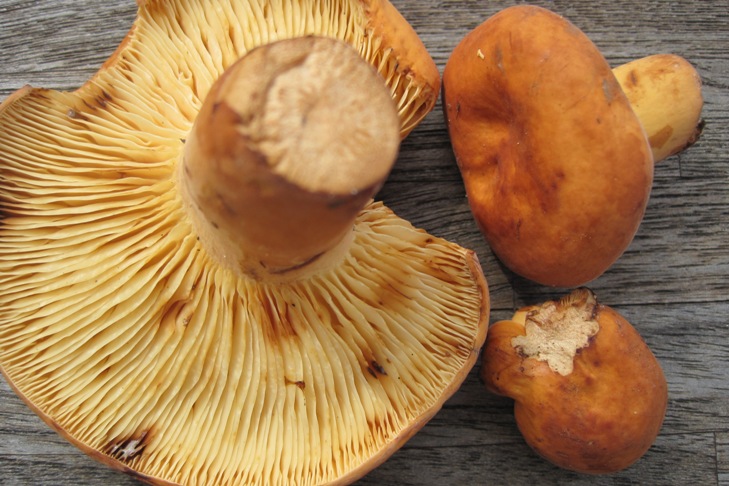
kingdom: Fungi
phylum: Basidiomycota
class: Agaricomycetes
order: Russulales
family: Russulaceae
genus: Lactifluus
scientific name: Lactifluus volemus
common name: spiselig mælkehat
